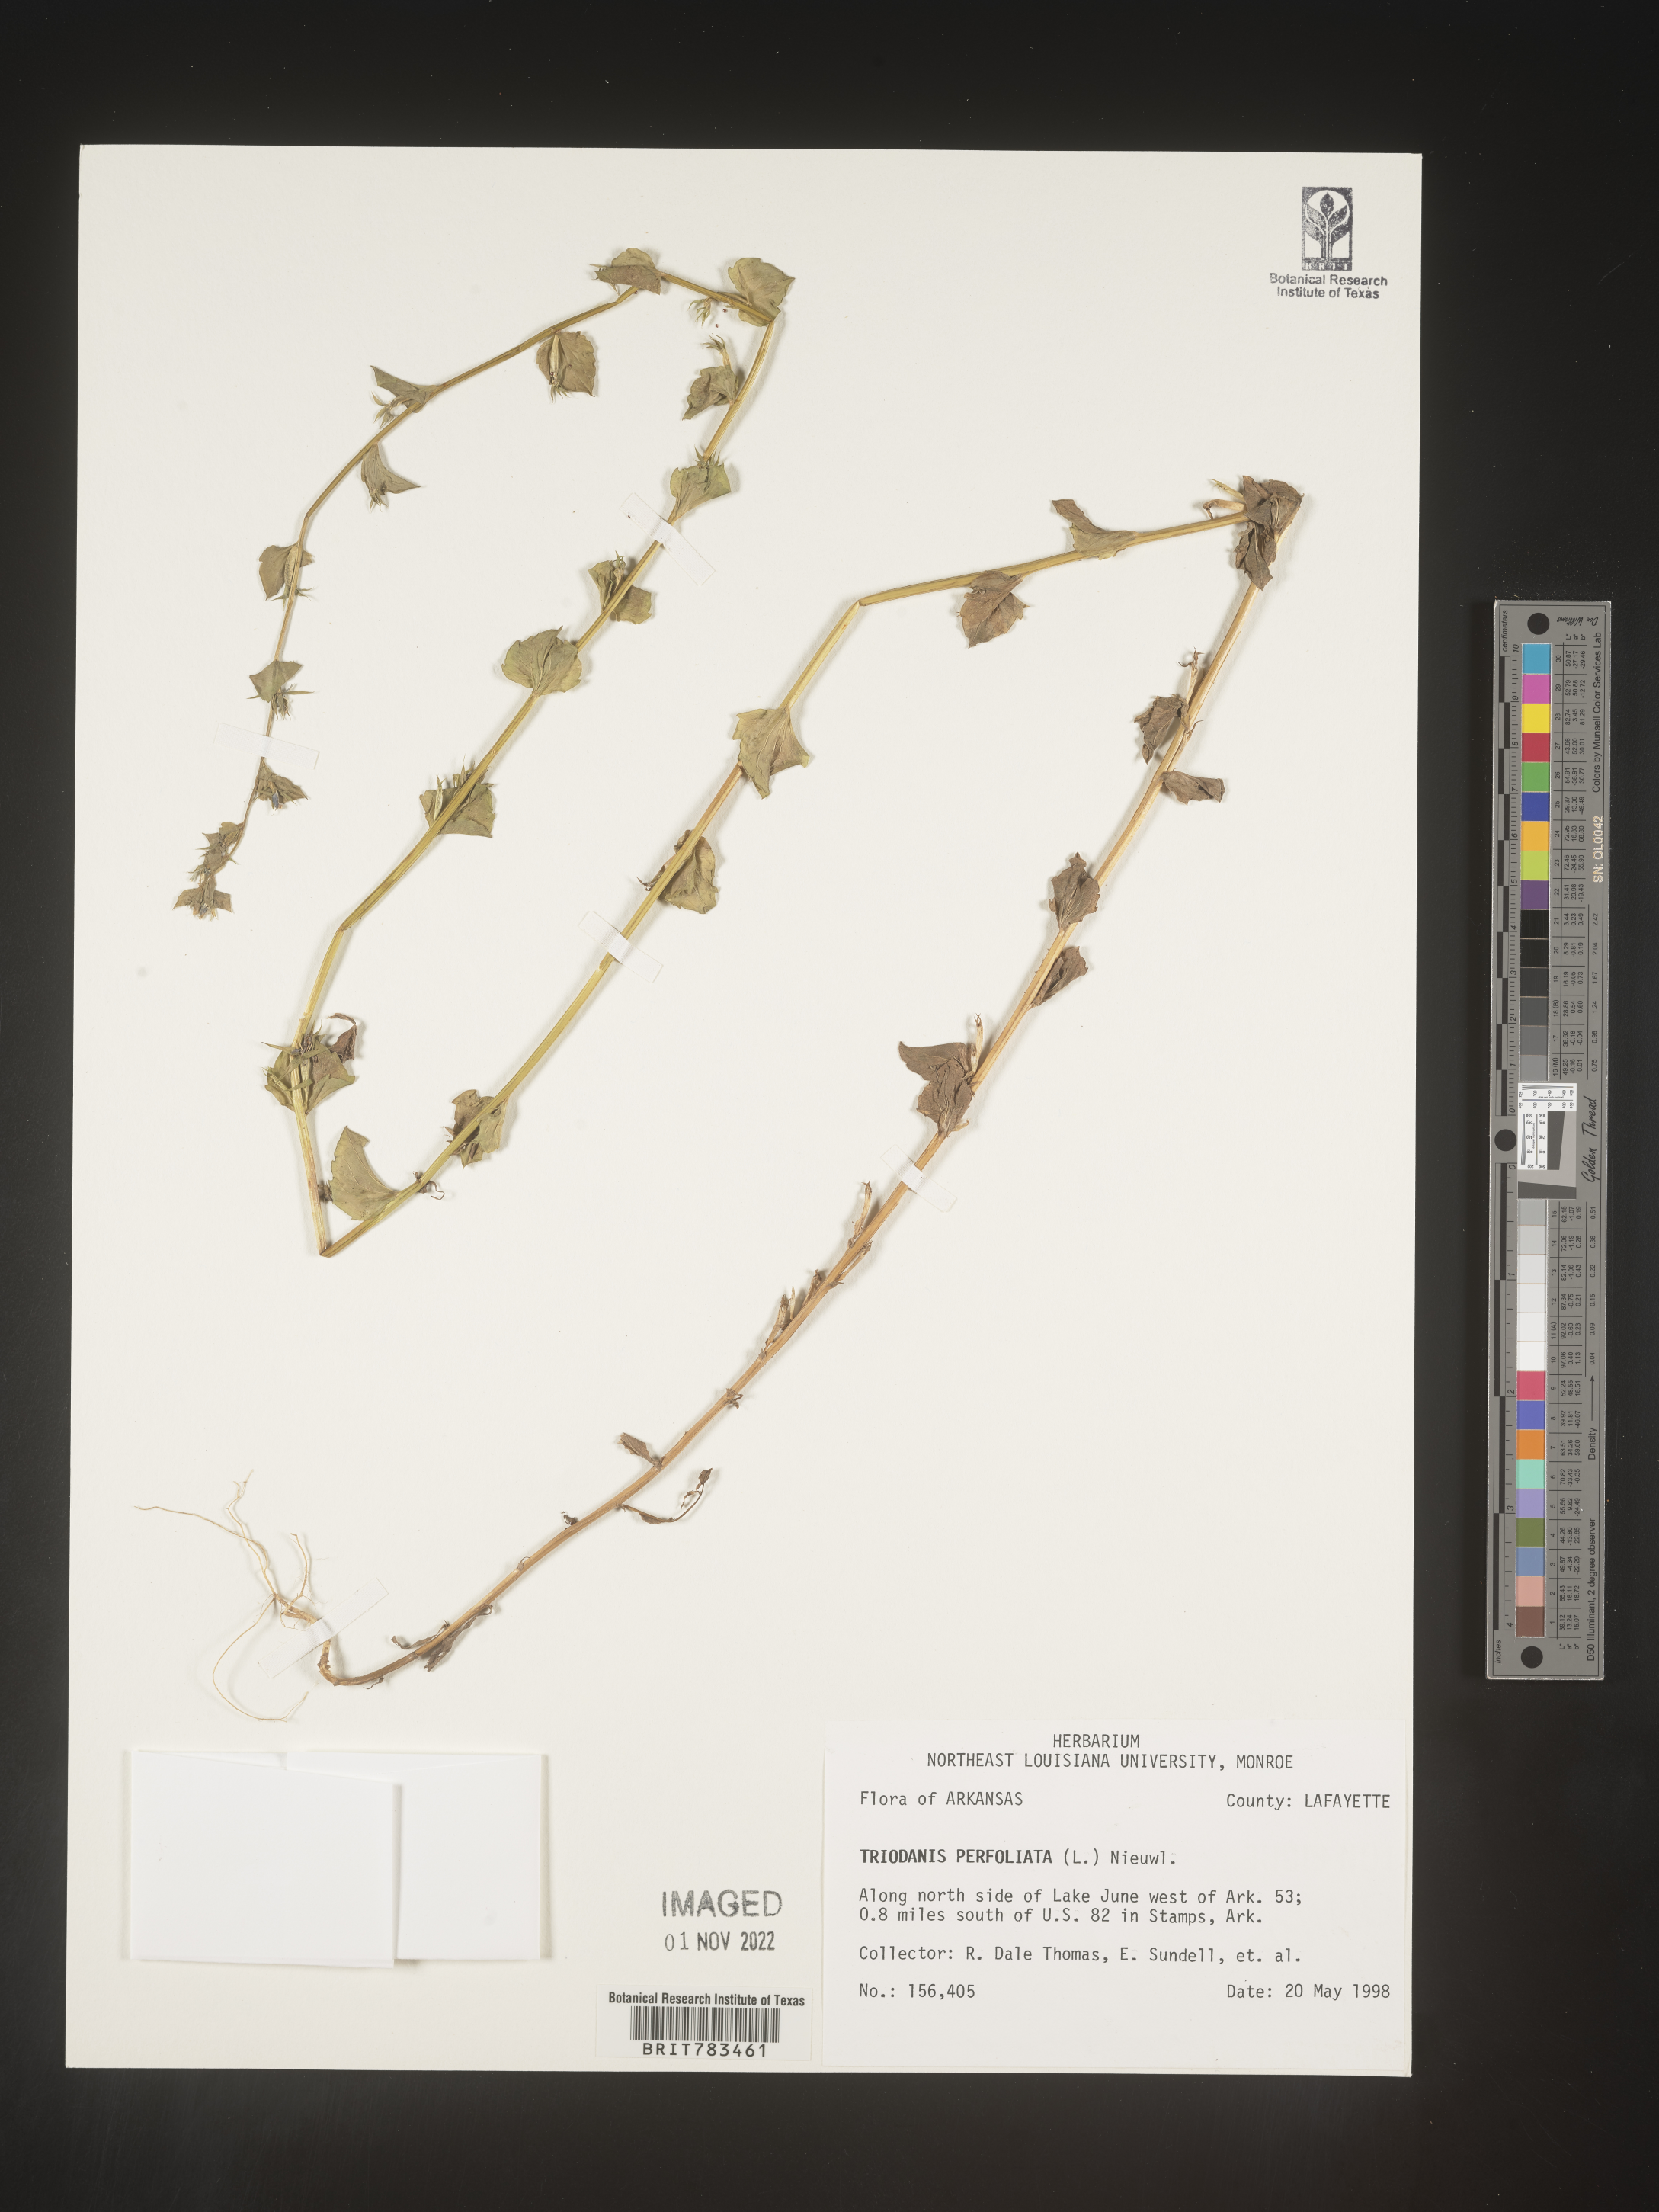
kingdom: Plantae
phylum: Tracheophyta
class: Magnoliopsida
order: Asterales
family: Campanulaceae
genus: Triodanis
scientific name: Triodanis perfoliata
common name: Clasping venus' looking-glass
